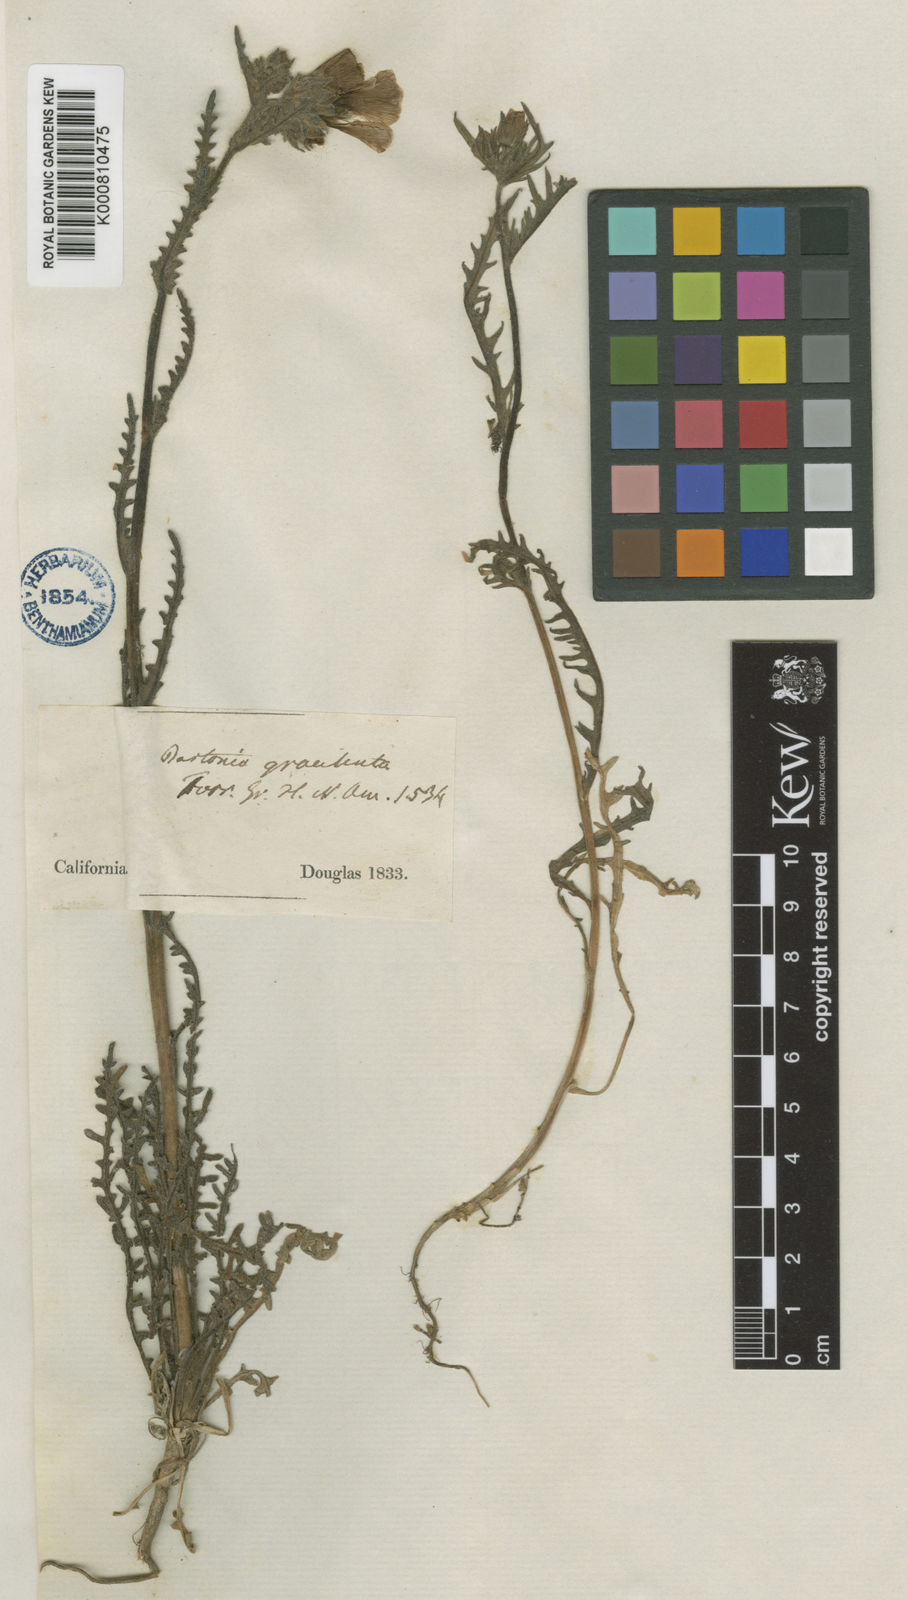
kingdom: Plantae
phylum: Tracheophyta
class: Magnoliopsida
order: Cornales
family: Loasaceae
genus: Mentzelia
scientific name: Mentzelia gracilenta
